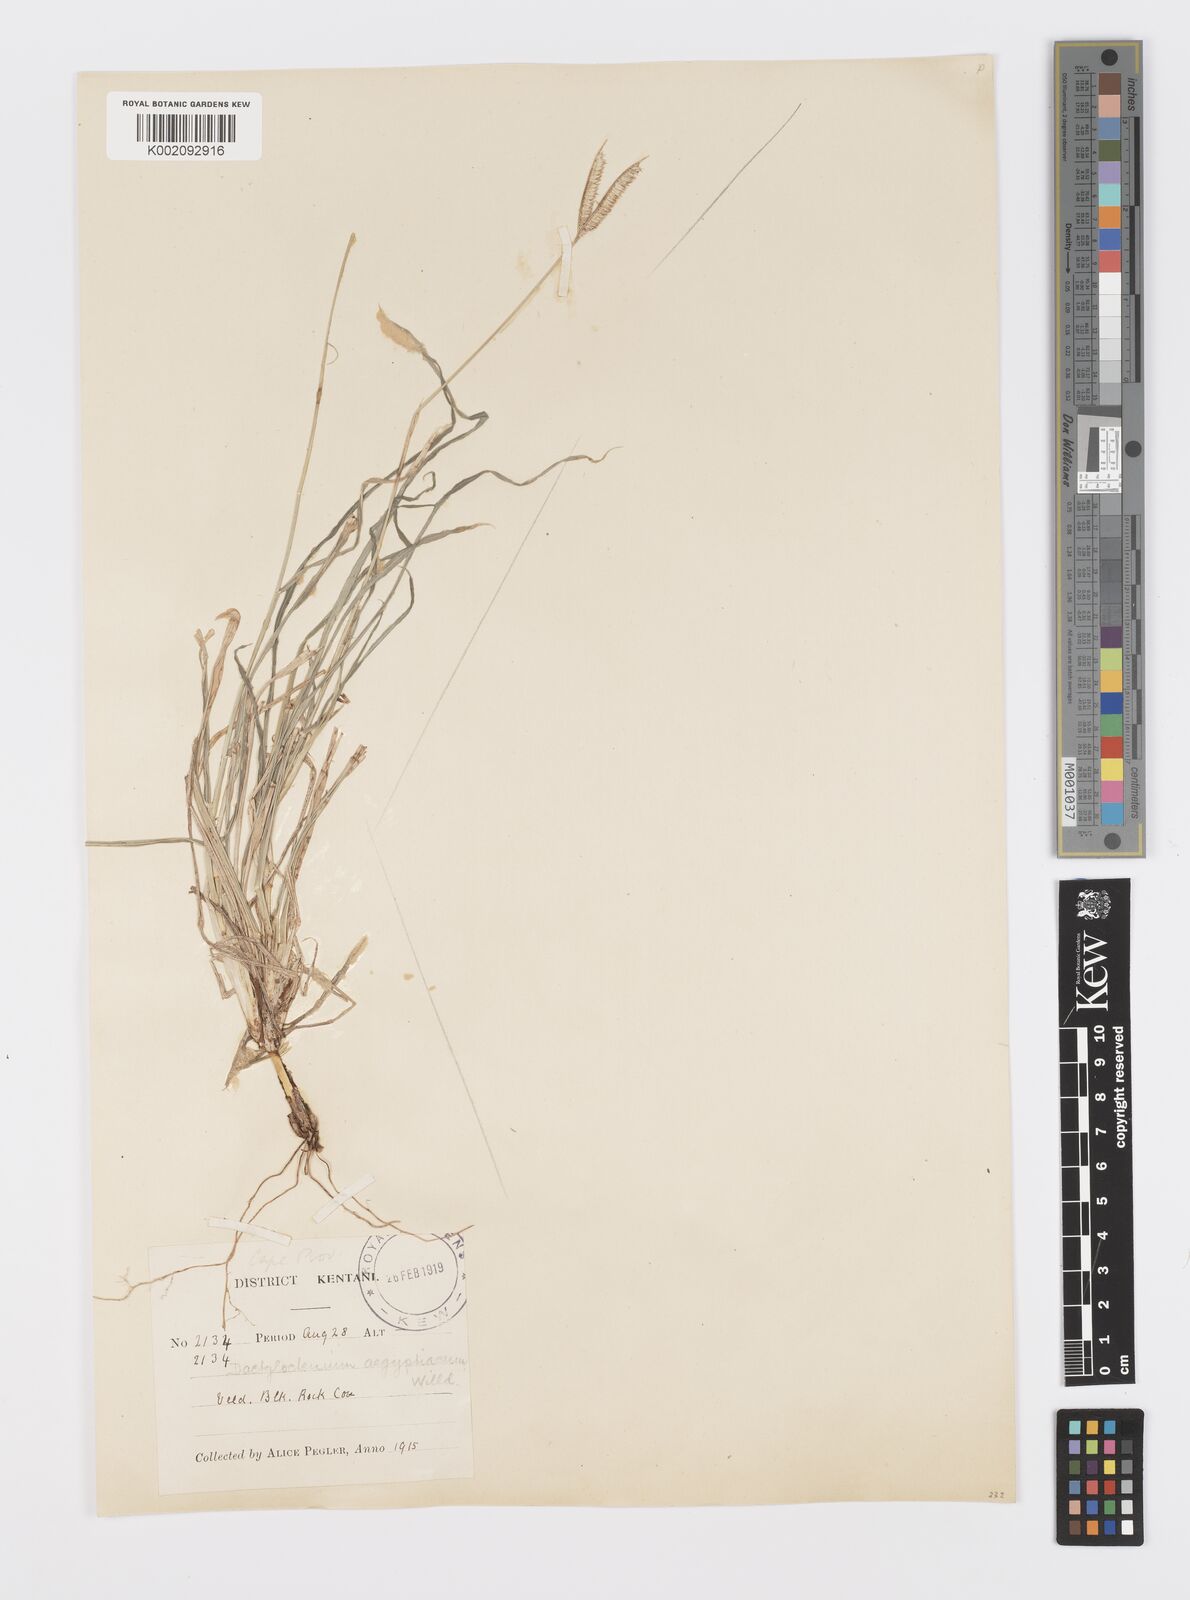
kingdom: Plantae
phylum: Tracheophyta
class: Liliopsida
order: Poales
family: Poaceae
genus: Dactyloctenium
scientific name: Dactyloctenium australe
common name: Durban grass
